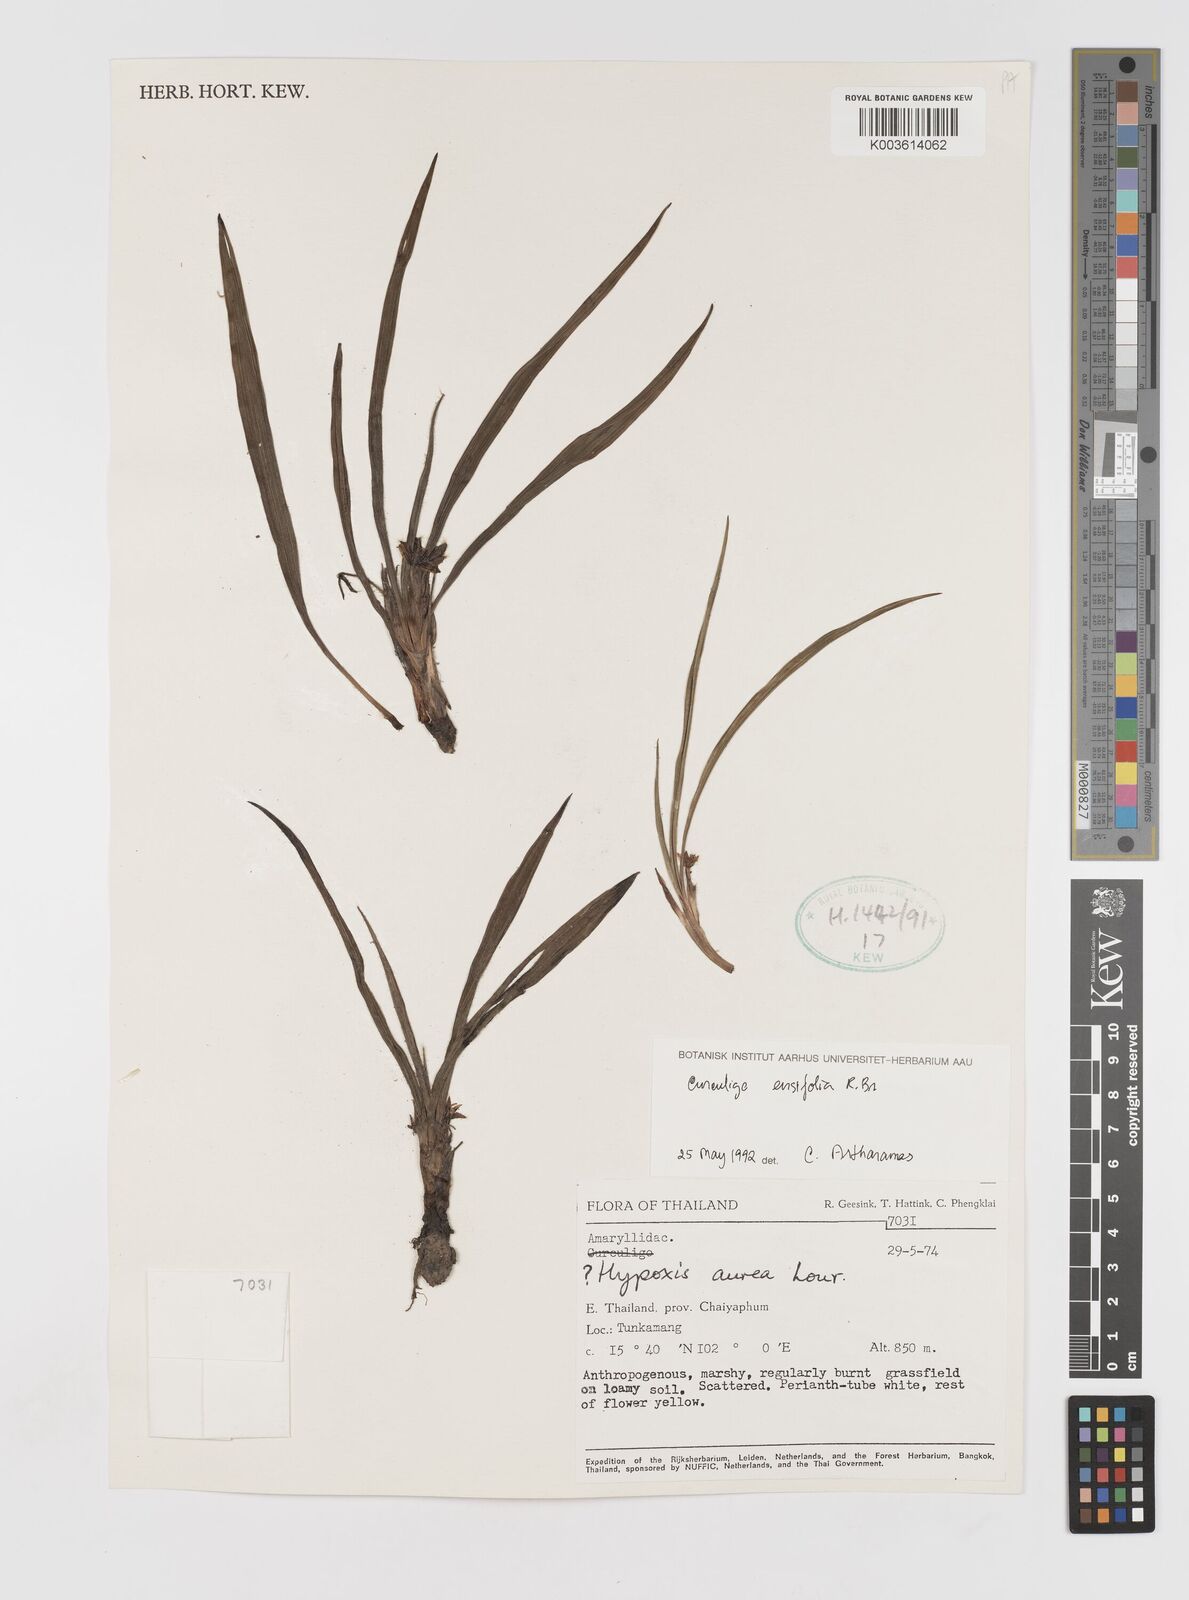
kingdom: Plantae
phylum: Tracheophyta
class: Liliopsida
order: Asparagales
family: Hypoxidaceae
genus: Curculigo
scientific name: Curculigo ensifolia
